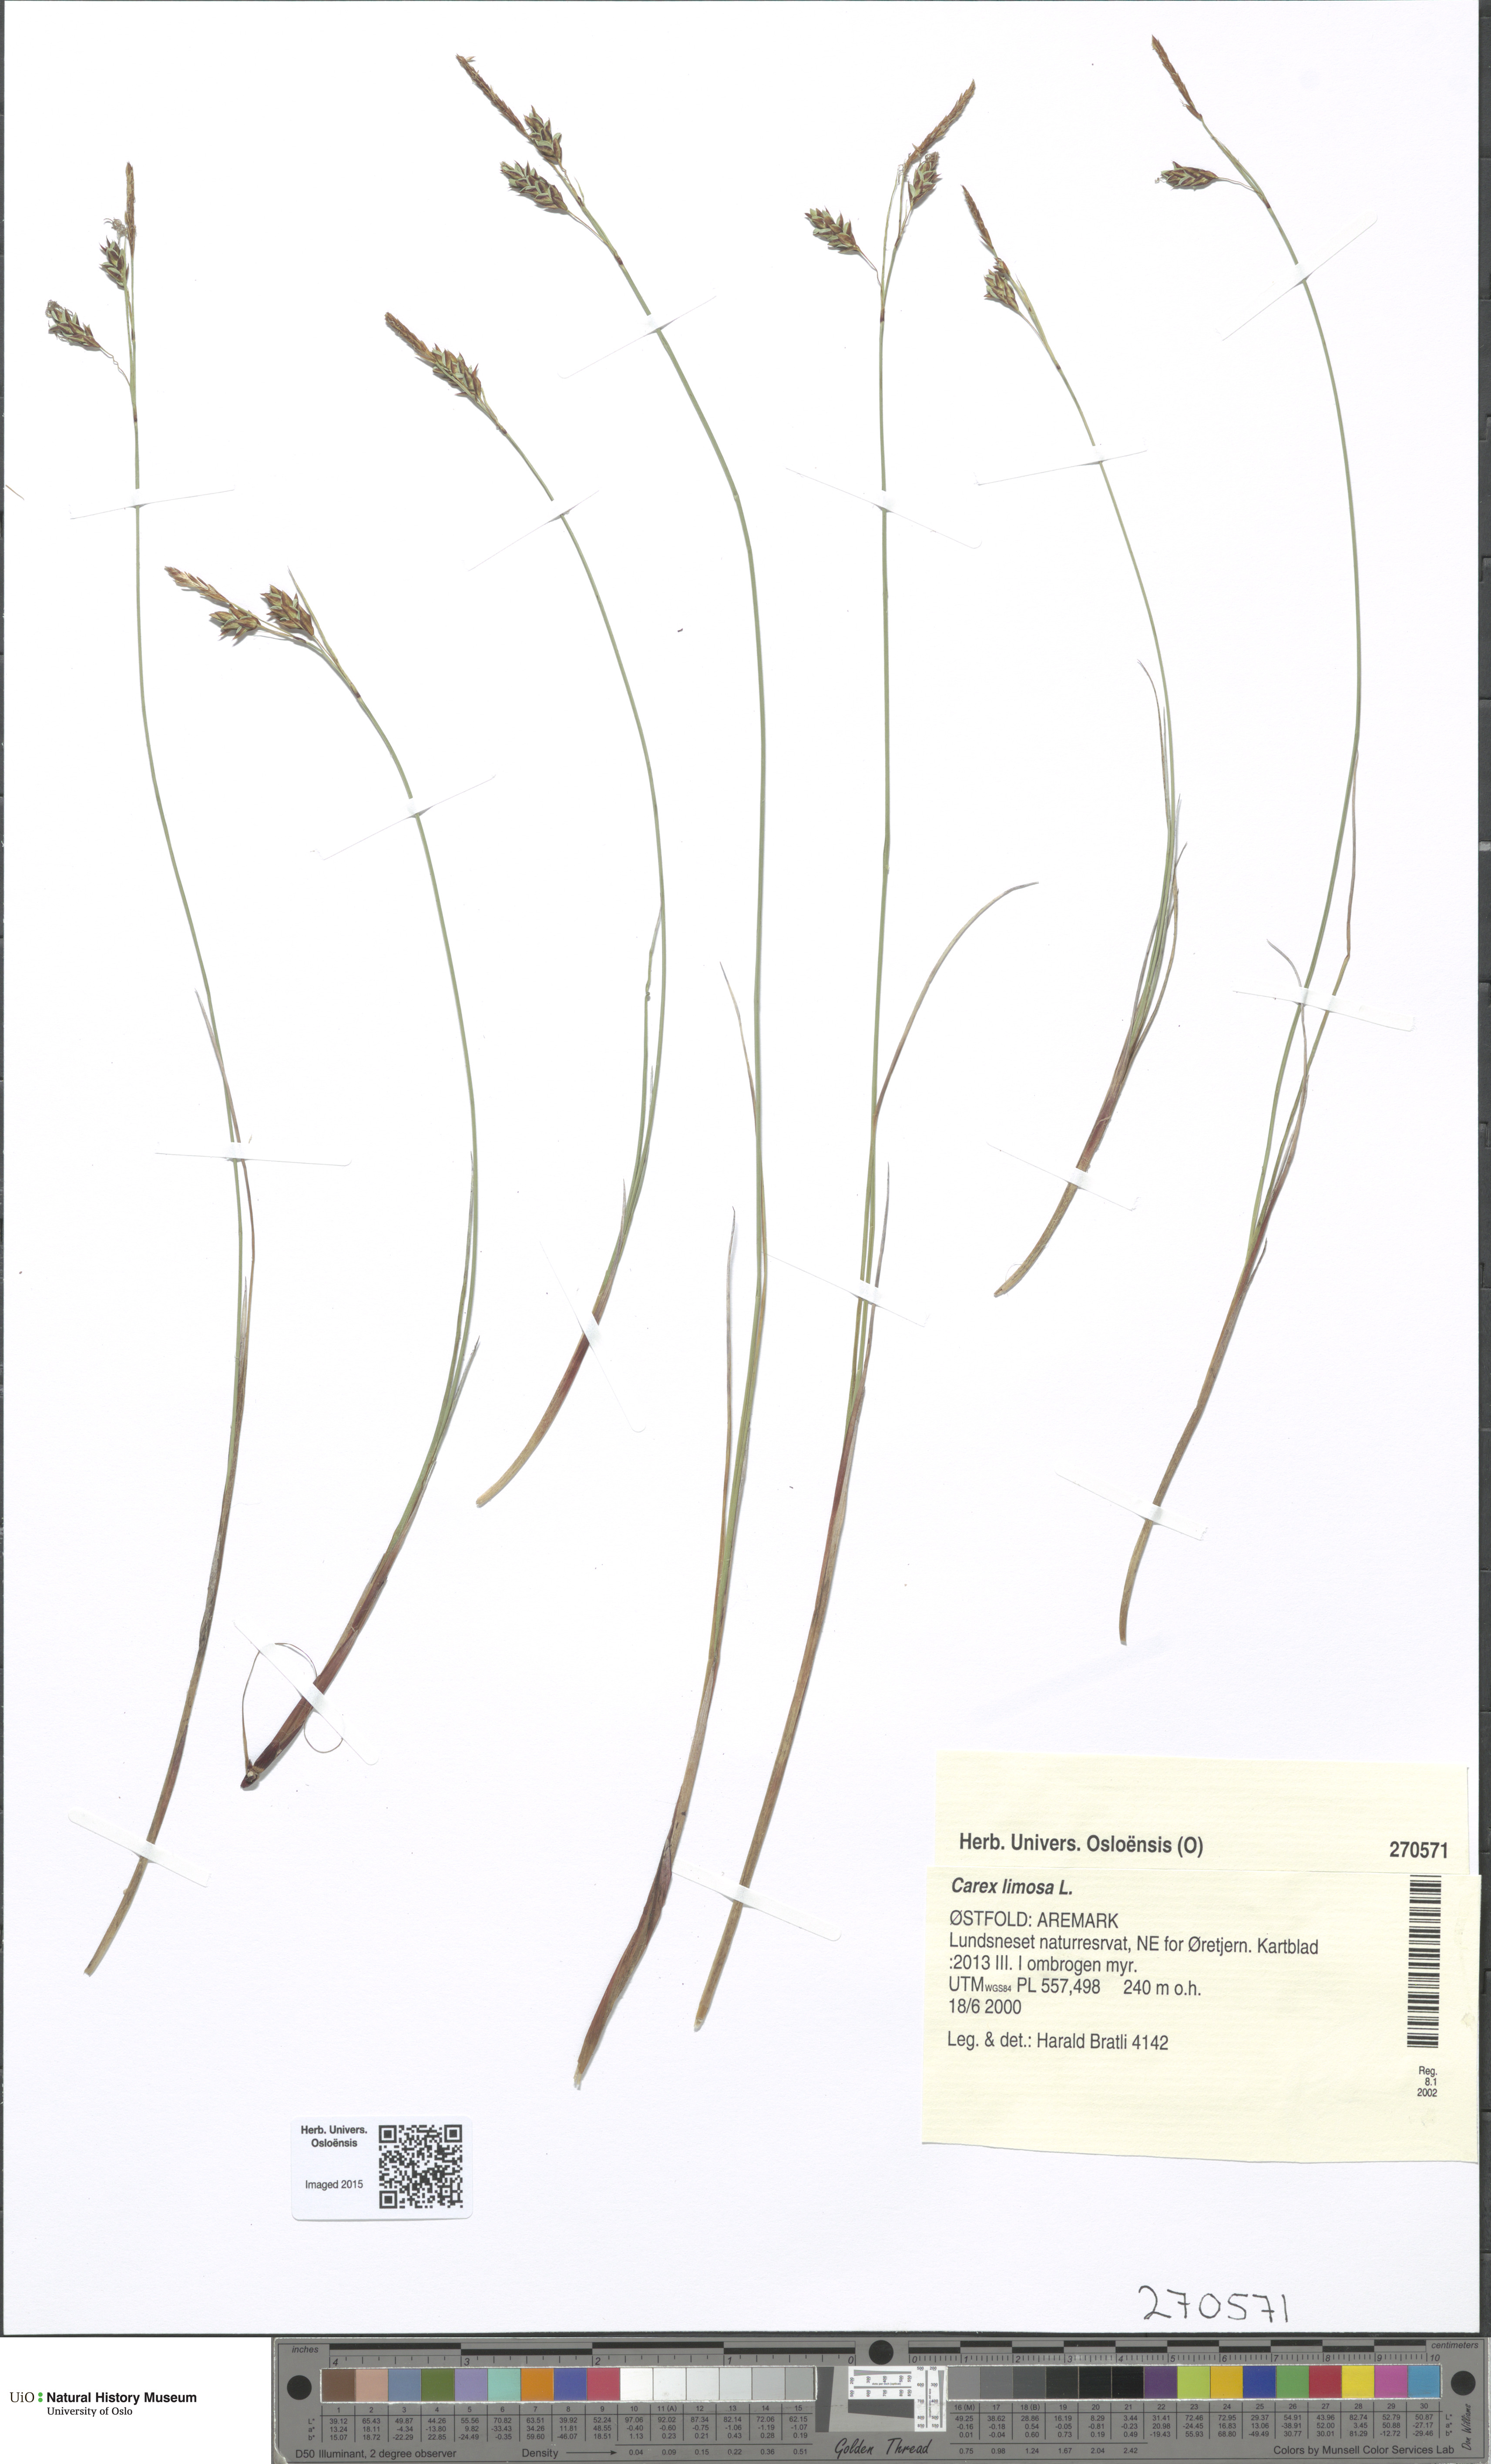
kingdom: Plantae
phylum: Tracheophyta
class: Liliopsida
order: Poales
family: Cyperaceae
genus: Carex
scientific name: Carex limosa
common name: Bog sedge
